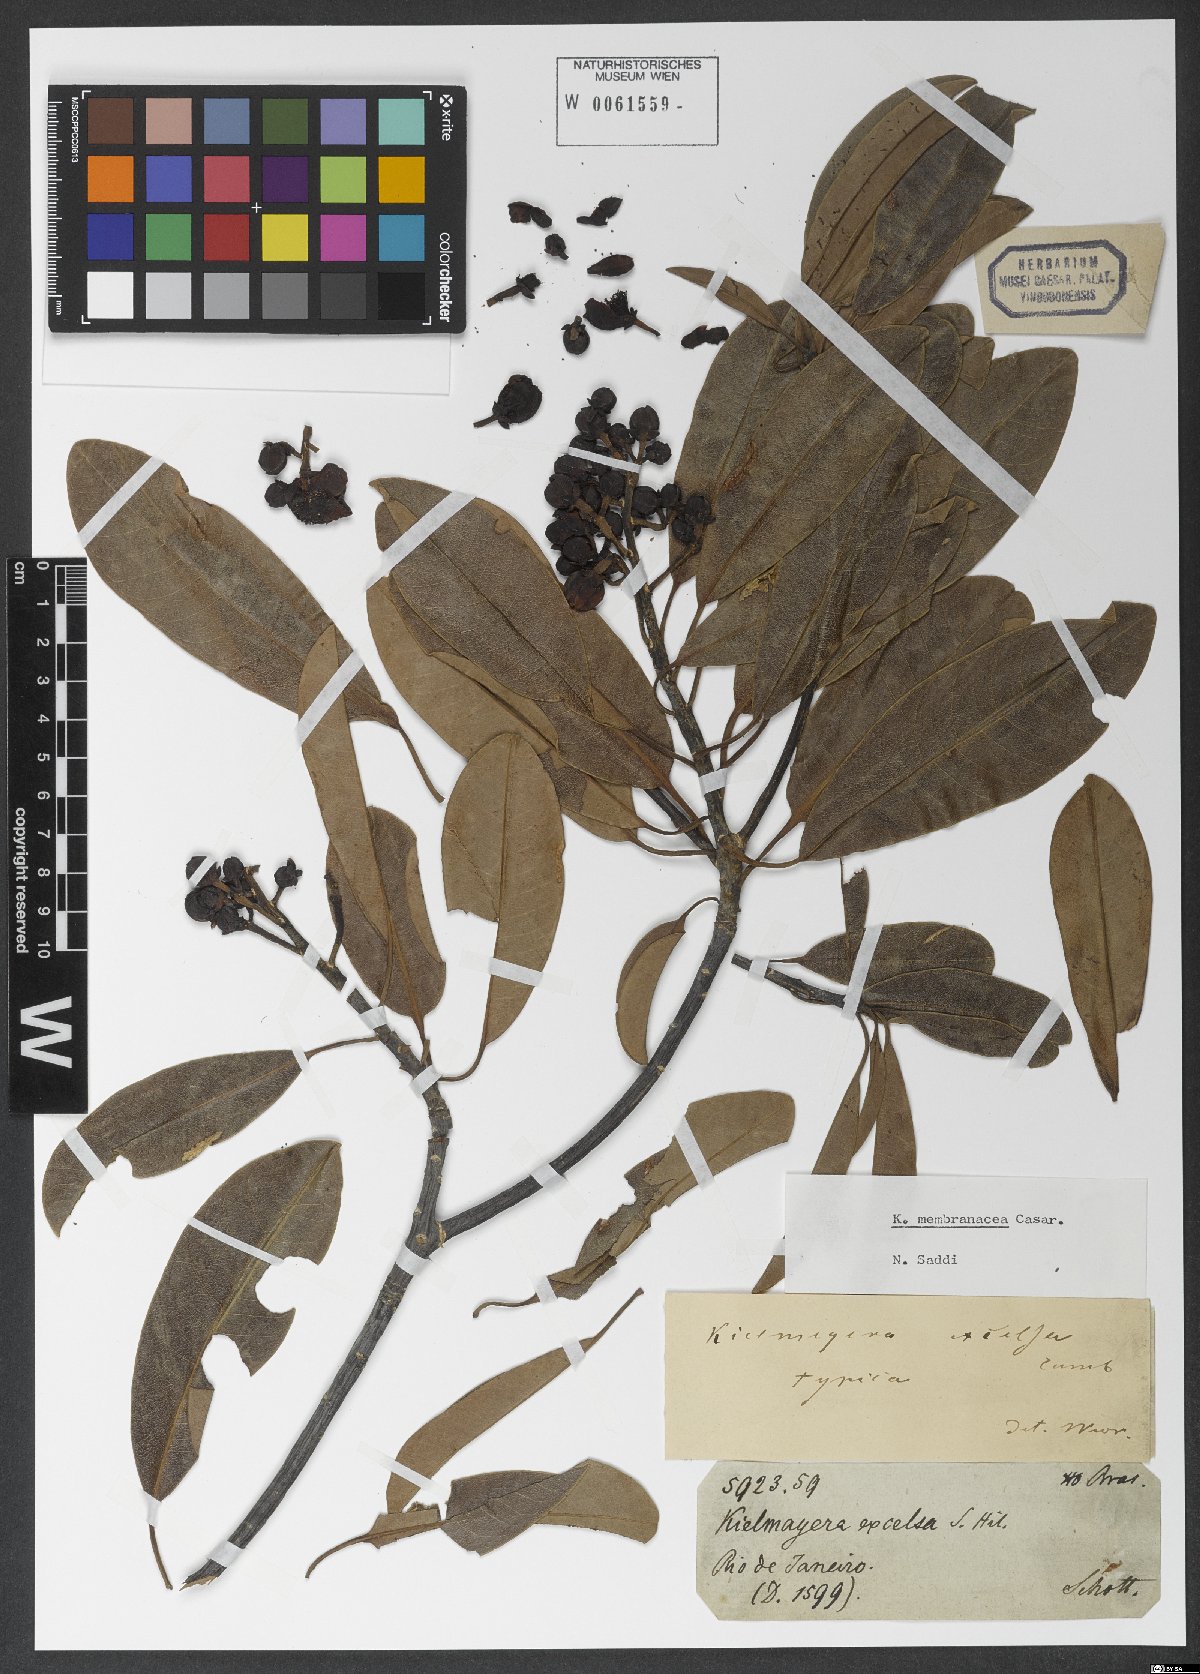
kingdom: Plantae
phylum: Tracheophyta
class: Magnoliopsida
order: Malpighiales
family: Calophyllaceae
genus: Kielmeyera
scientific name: Kielmeyera membranacea
